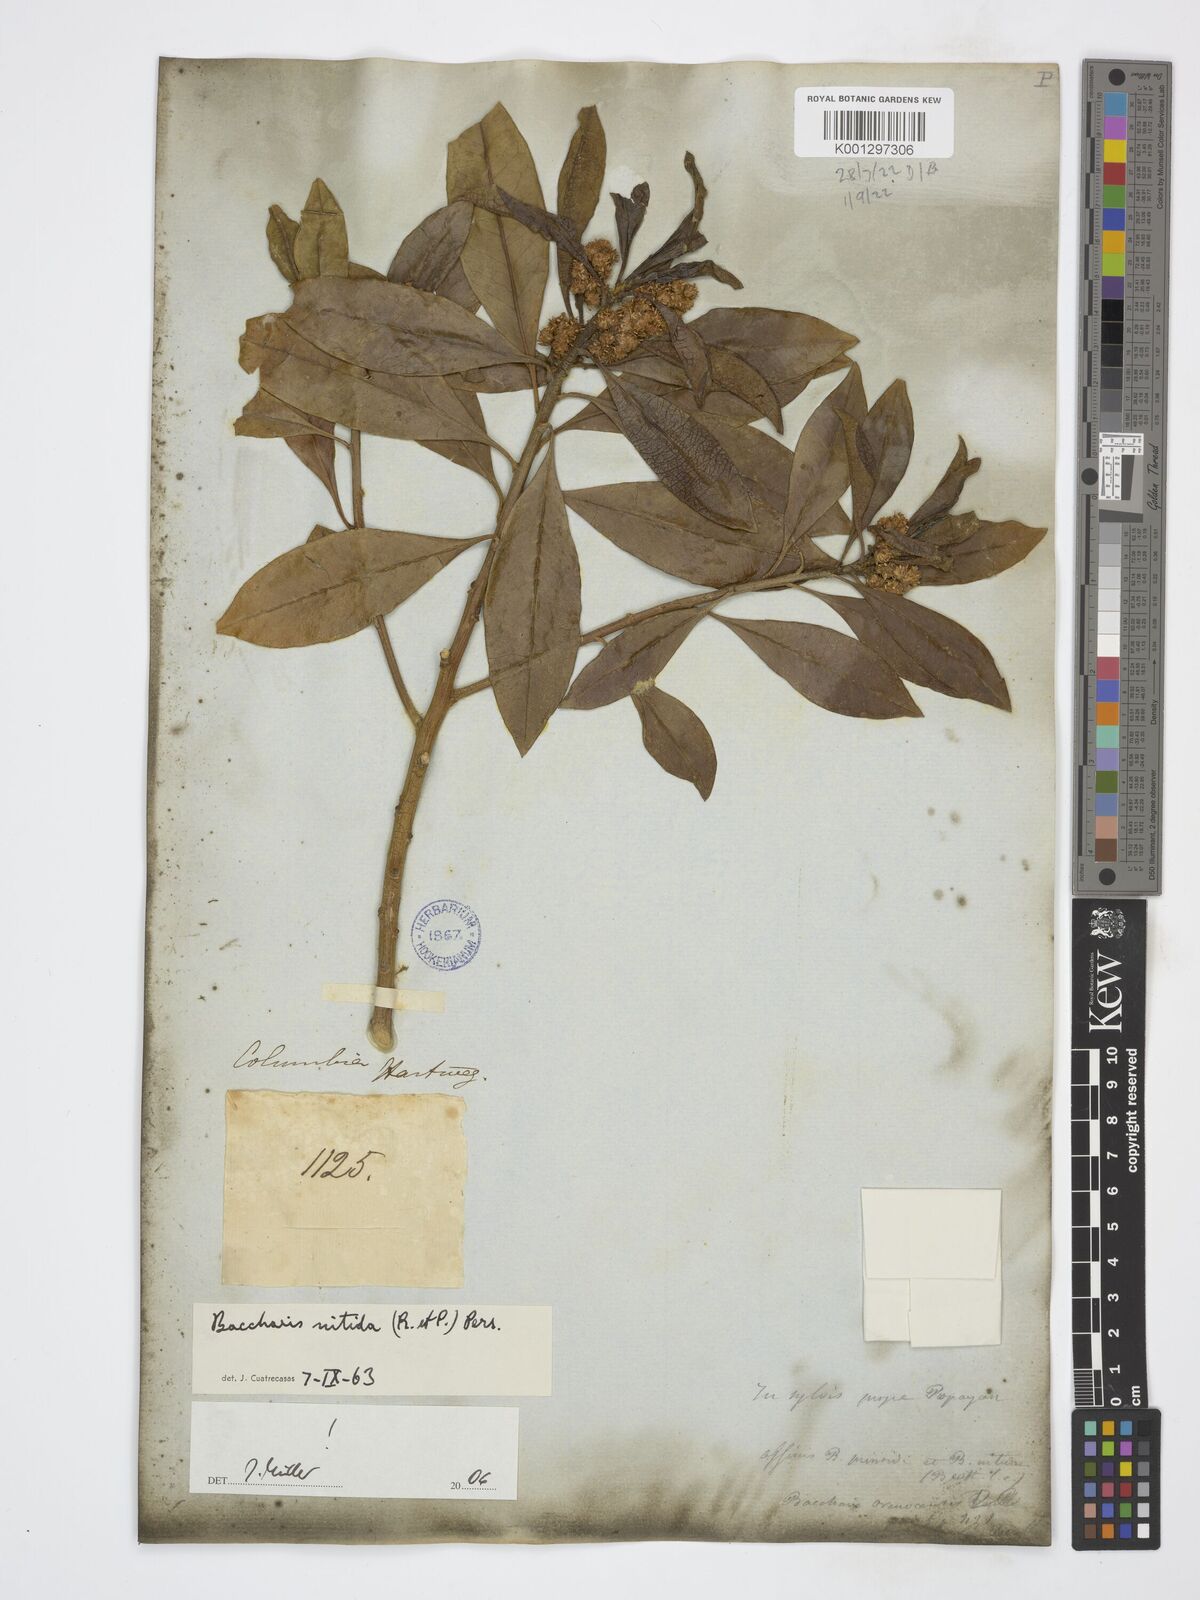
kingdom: Plantae
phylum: Tracheophyta
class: Magnoliopsida
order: Asterales
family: Asteraceae
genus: Baccharis
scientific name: Baccharis nitida
